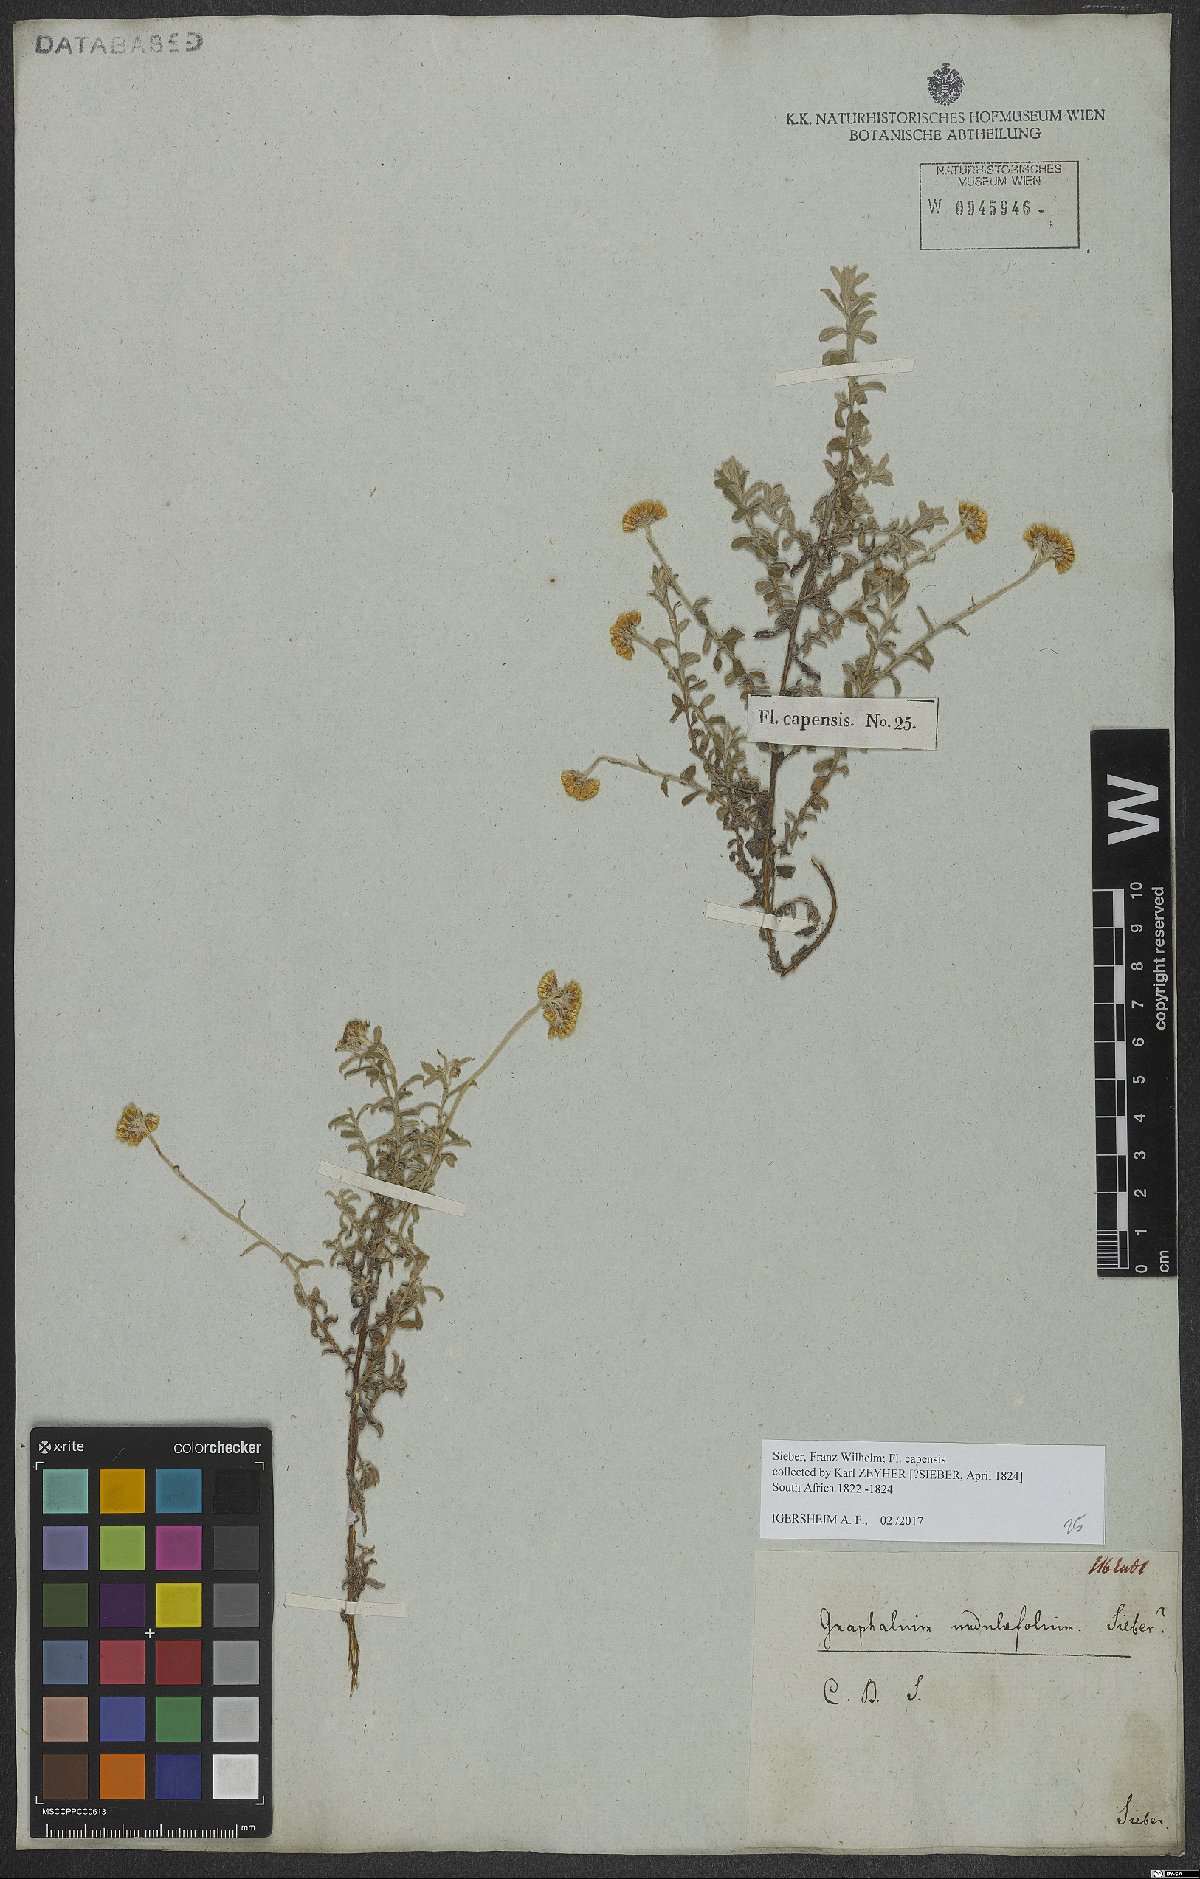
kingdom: Plantae
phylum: Tracheophyta
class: Magnoliopsida
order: Asterales
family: Asteraceae
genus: Helichrysum
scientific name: Helichrysum odoratissimum
